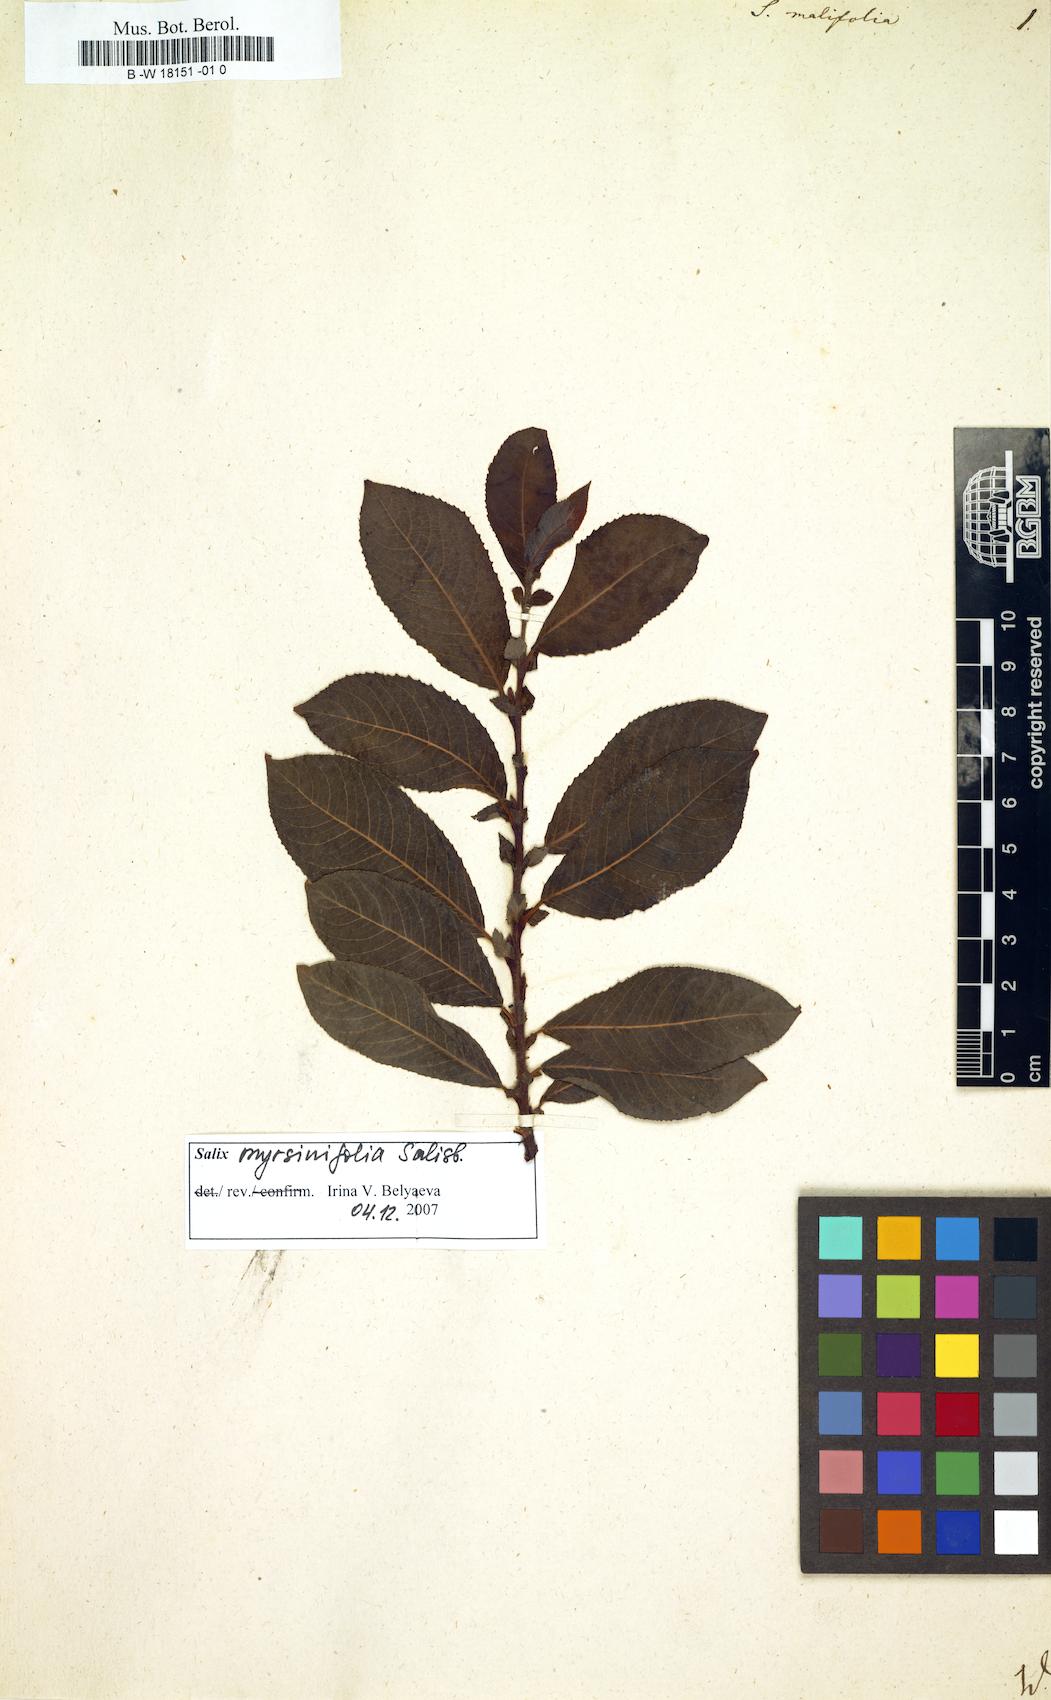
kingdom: Plantae
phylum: Tracheophyta
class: Magnoliopsida
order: Malpighiales
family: Salicaceae
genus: Salix
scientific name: Salix
